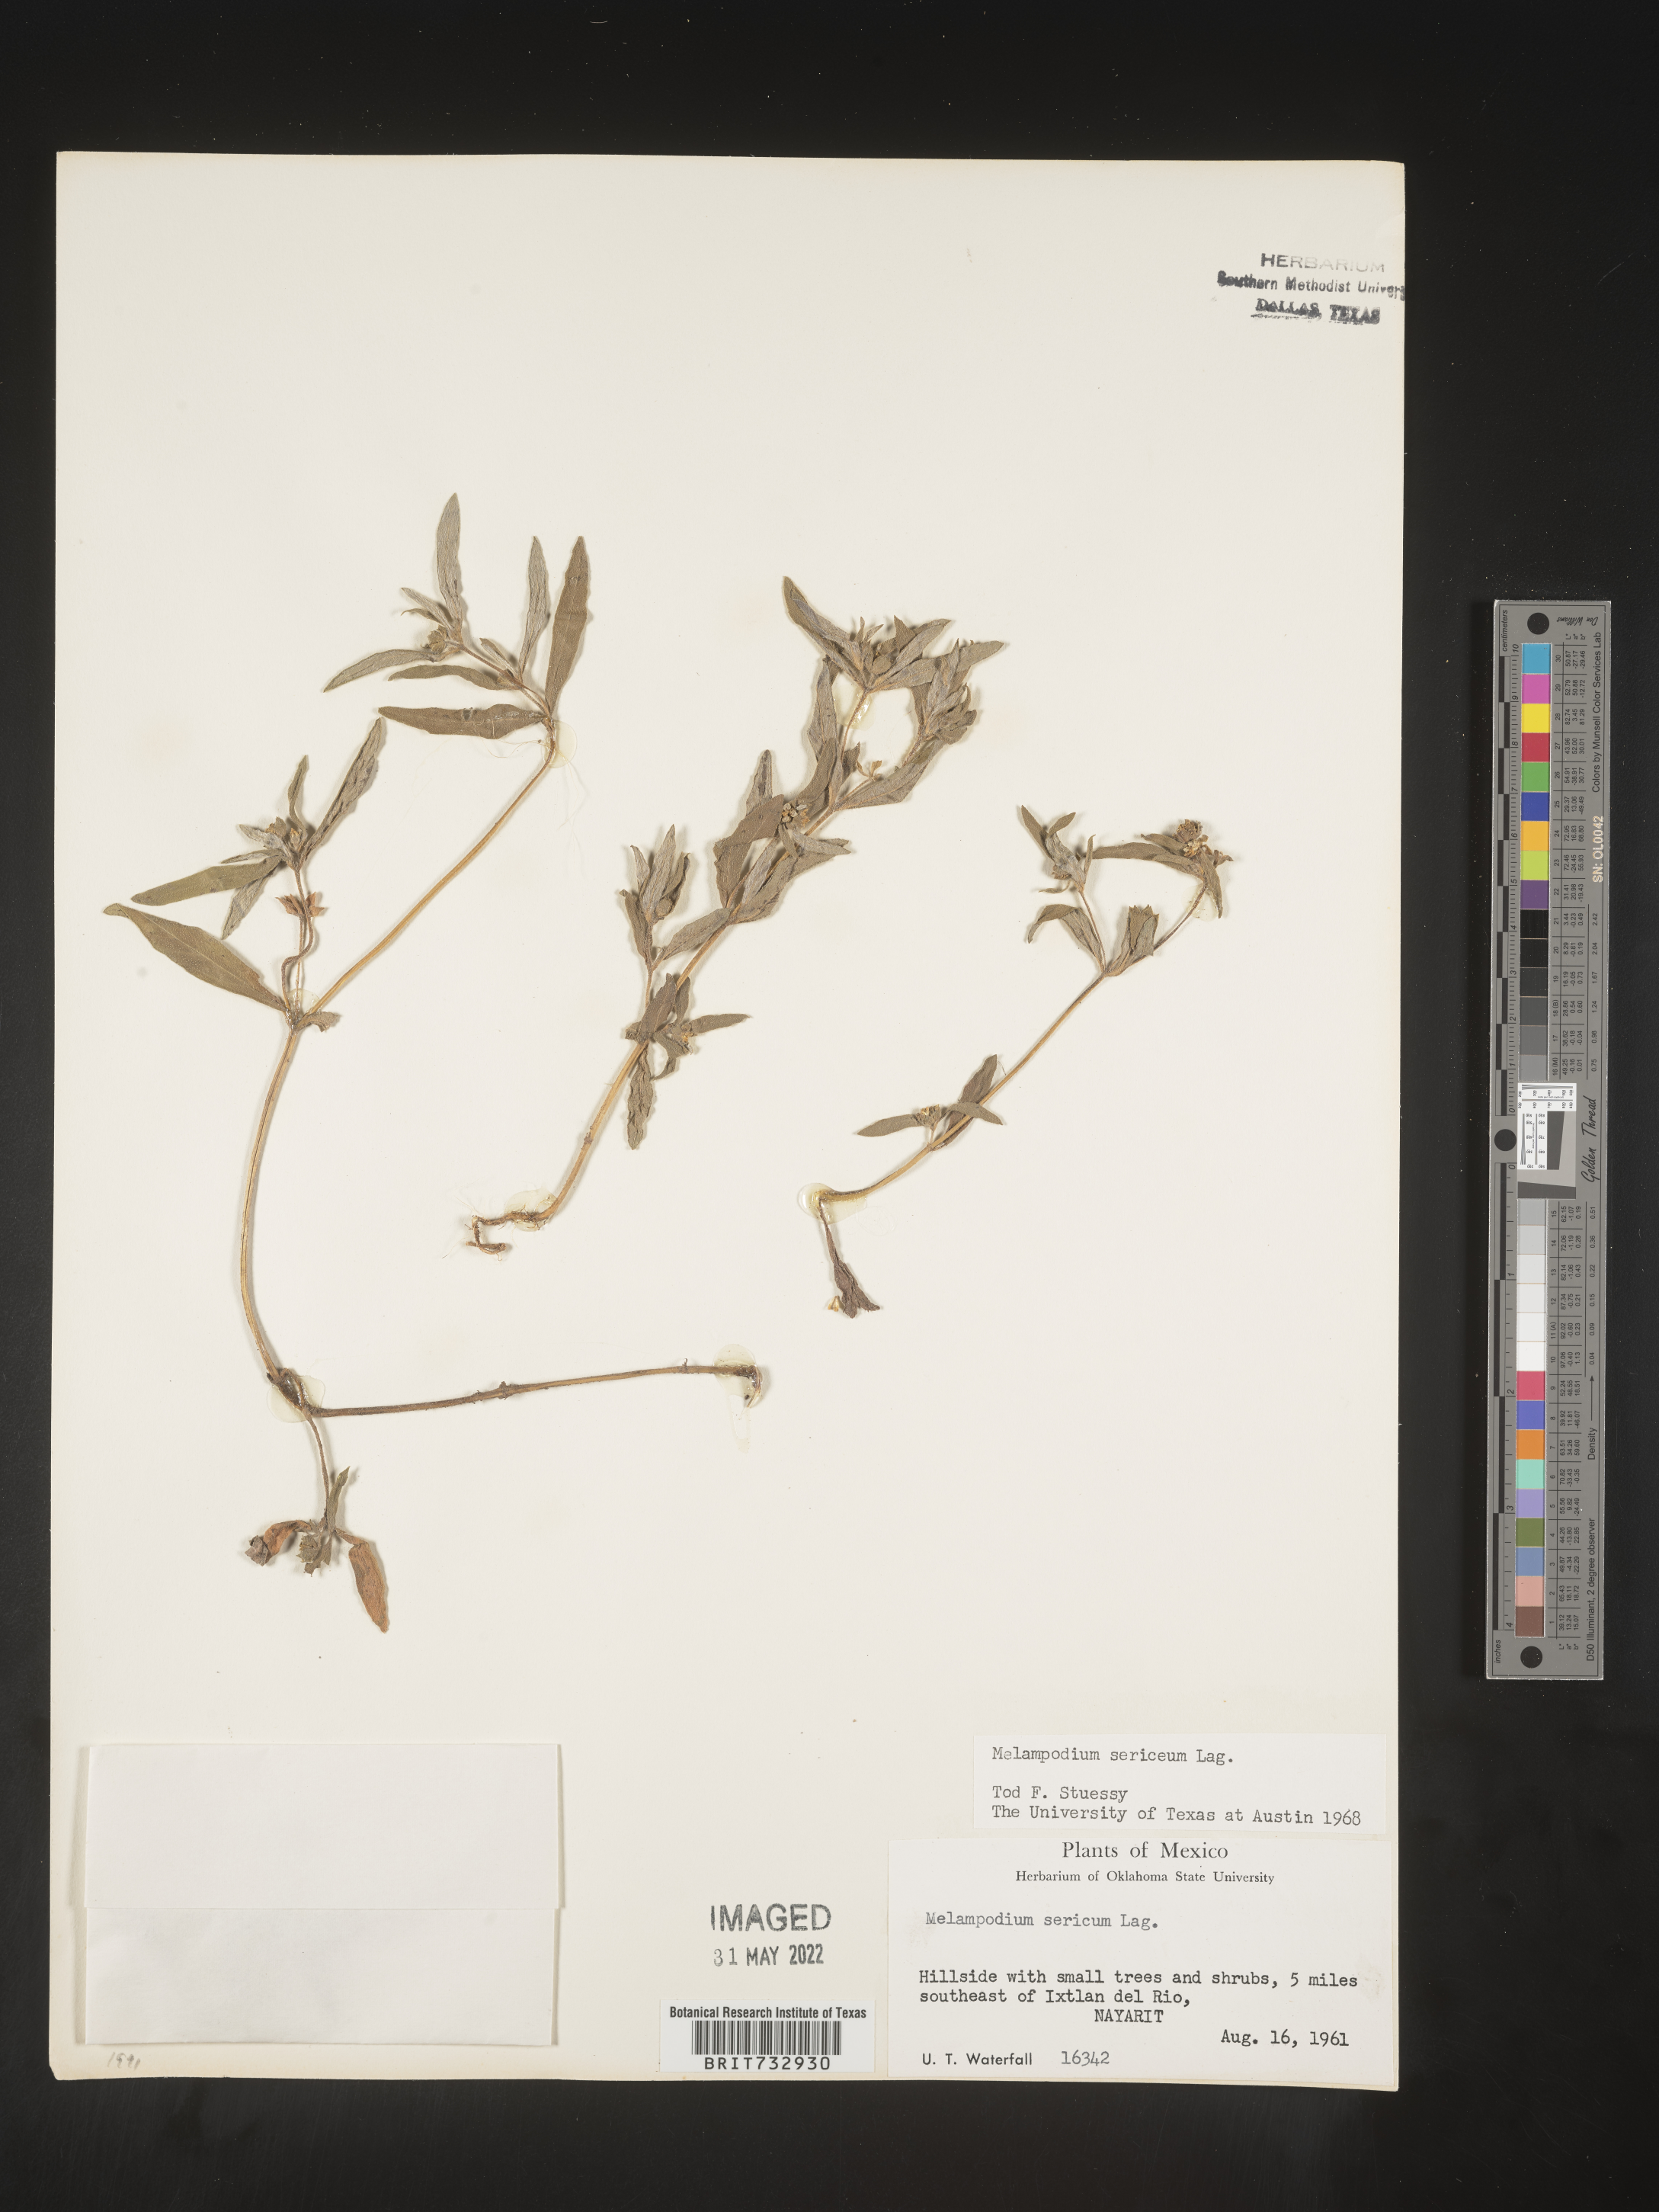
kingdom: Plantae
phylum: Tracheophyta
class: Magnoliopsida
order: Asterales
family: Asteraceae
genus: Melampodium
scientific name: Melampodium
